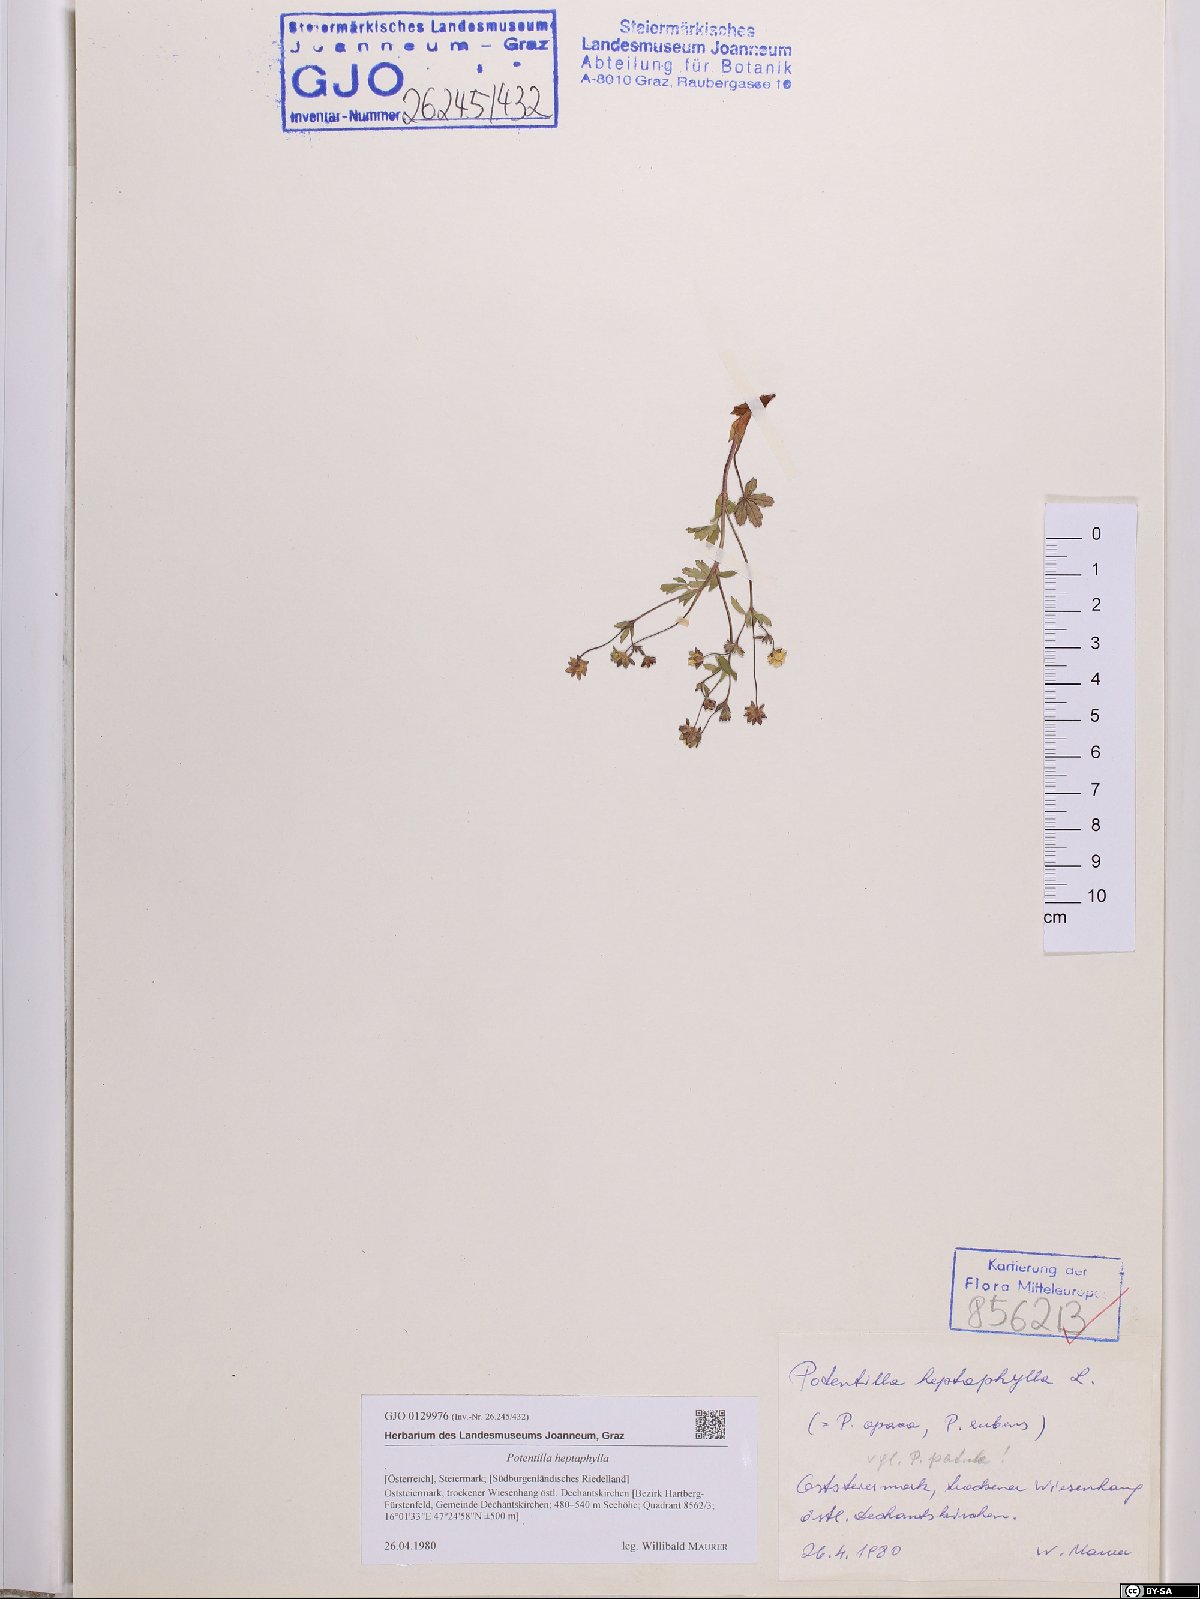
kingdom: Plantae
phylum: Tracheophyta
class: Magnoliopsida
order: Rosales
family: Rosaceae
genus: Potentilla
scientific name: Potentilla heptaphylla
